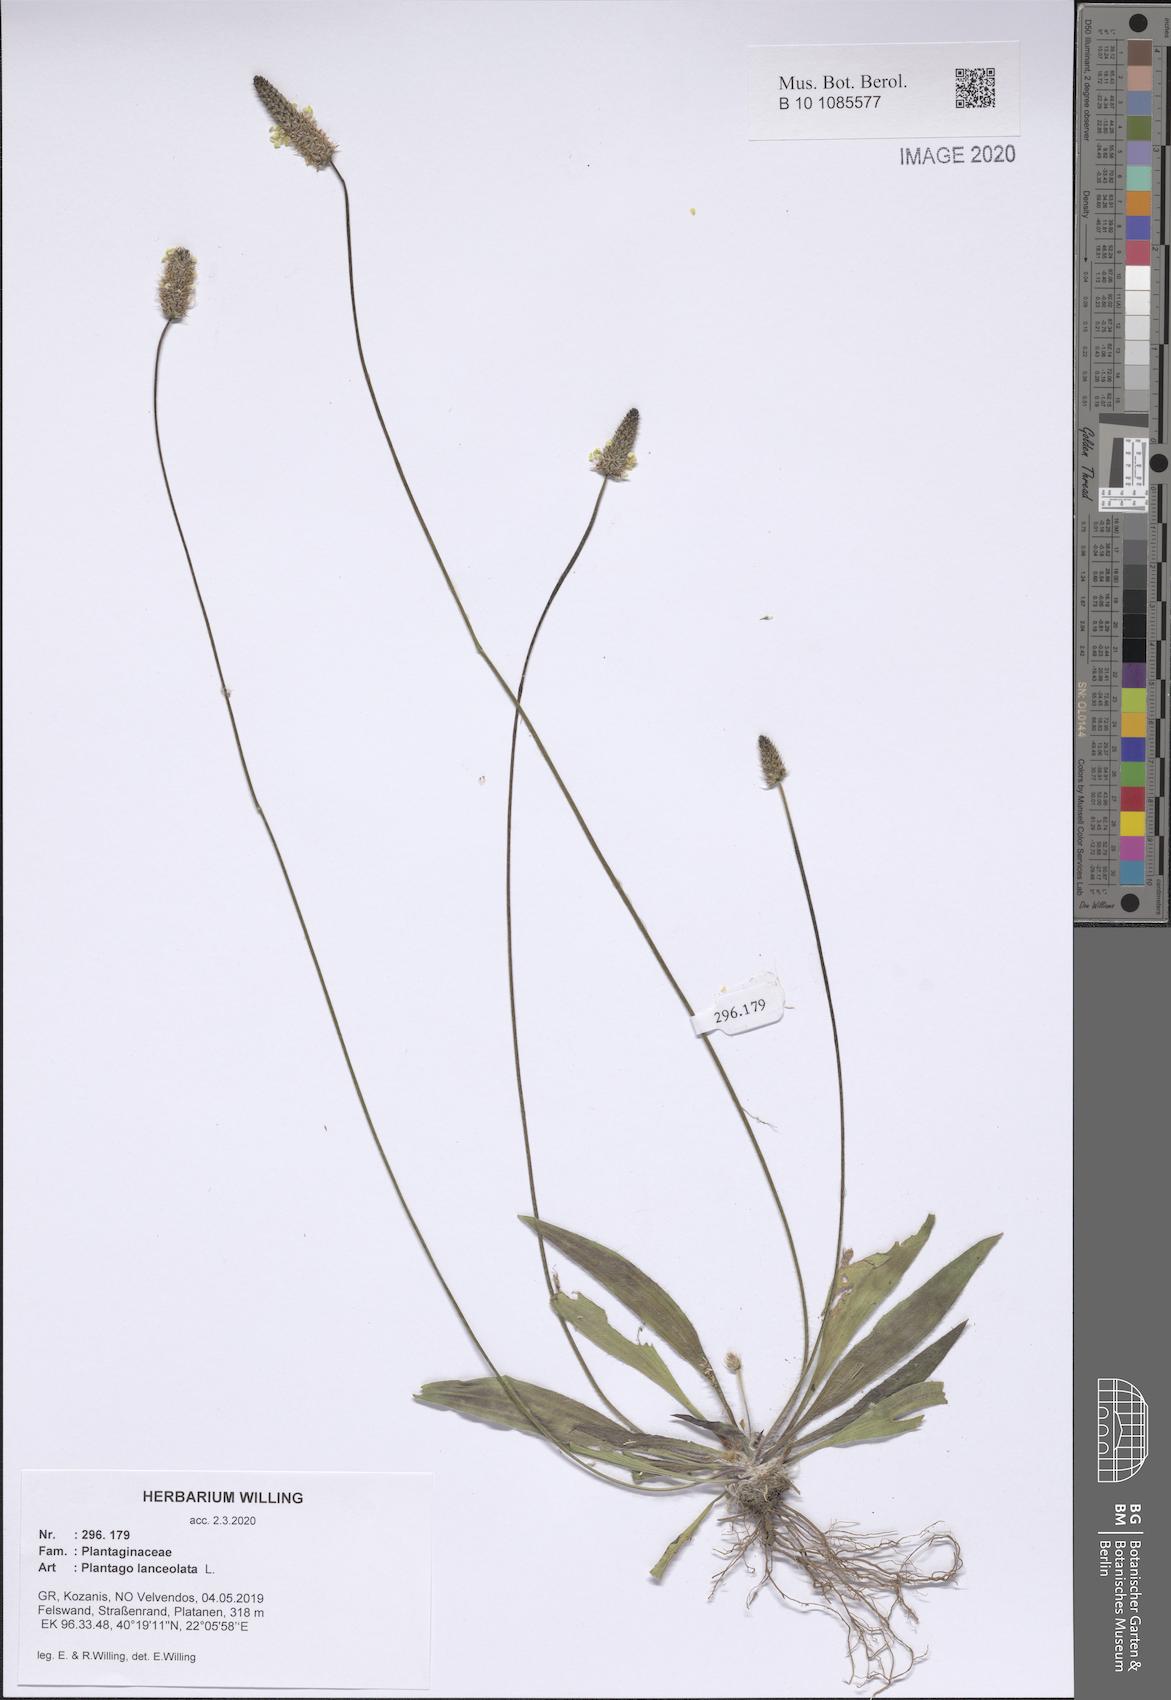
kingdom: Plantae
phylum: Tracheophyta
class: Magnoliopsida
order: Lamiales
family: Plantaginaceae
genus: Plantago
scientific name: Plantago lanceolata
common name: Ribwort plantain
